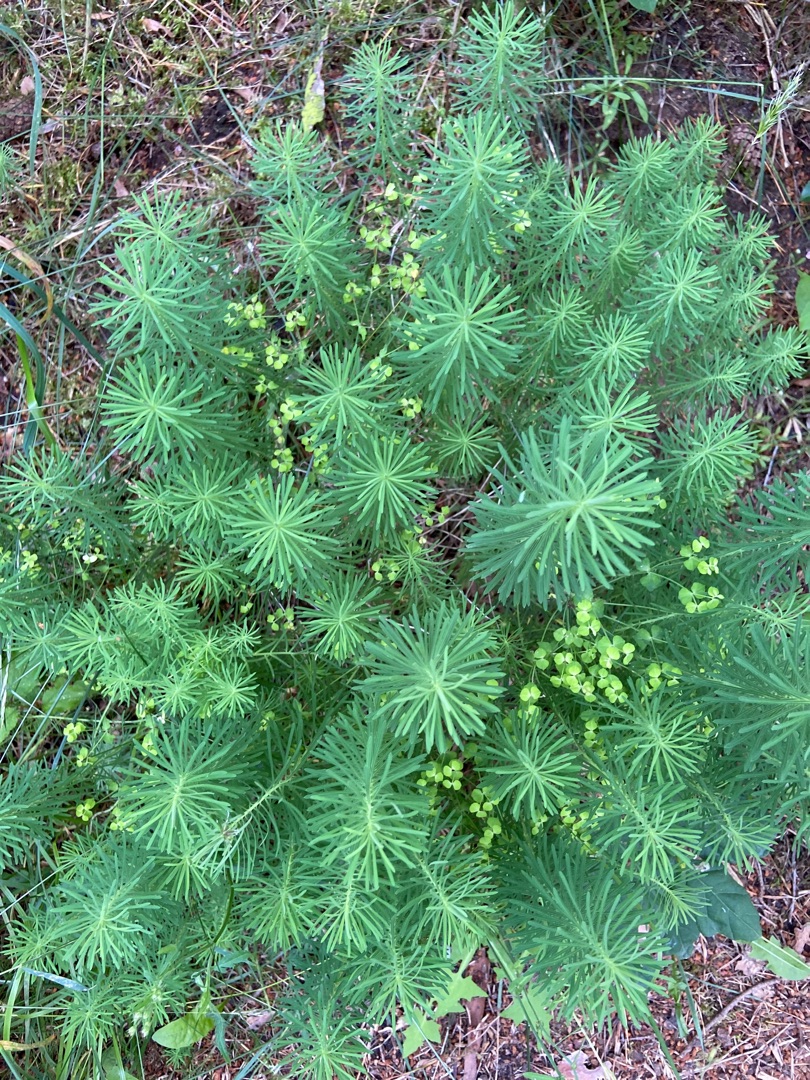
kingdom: Plantae
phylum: Tracheophyta
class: Magnoliopsida
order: Malpighiales
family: Euphorbiaceae
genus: Euphorbia
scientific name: Euphorbia cyparissias
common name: Cypres-vortemælk
